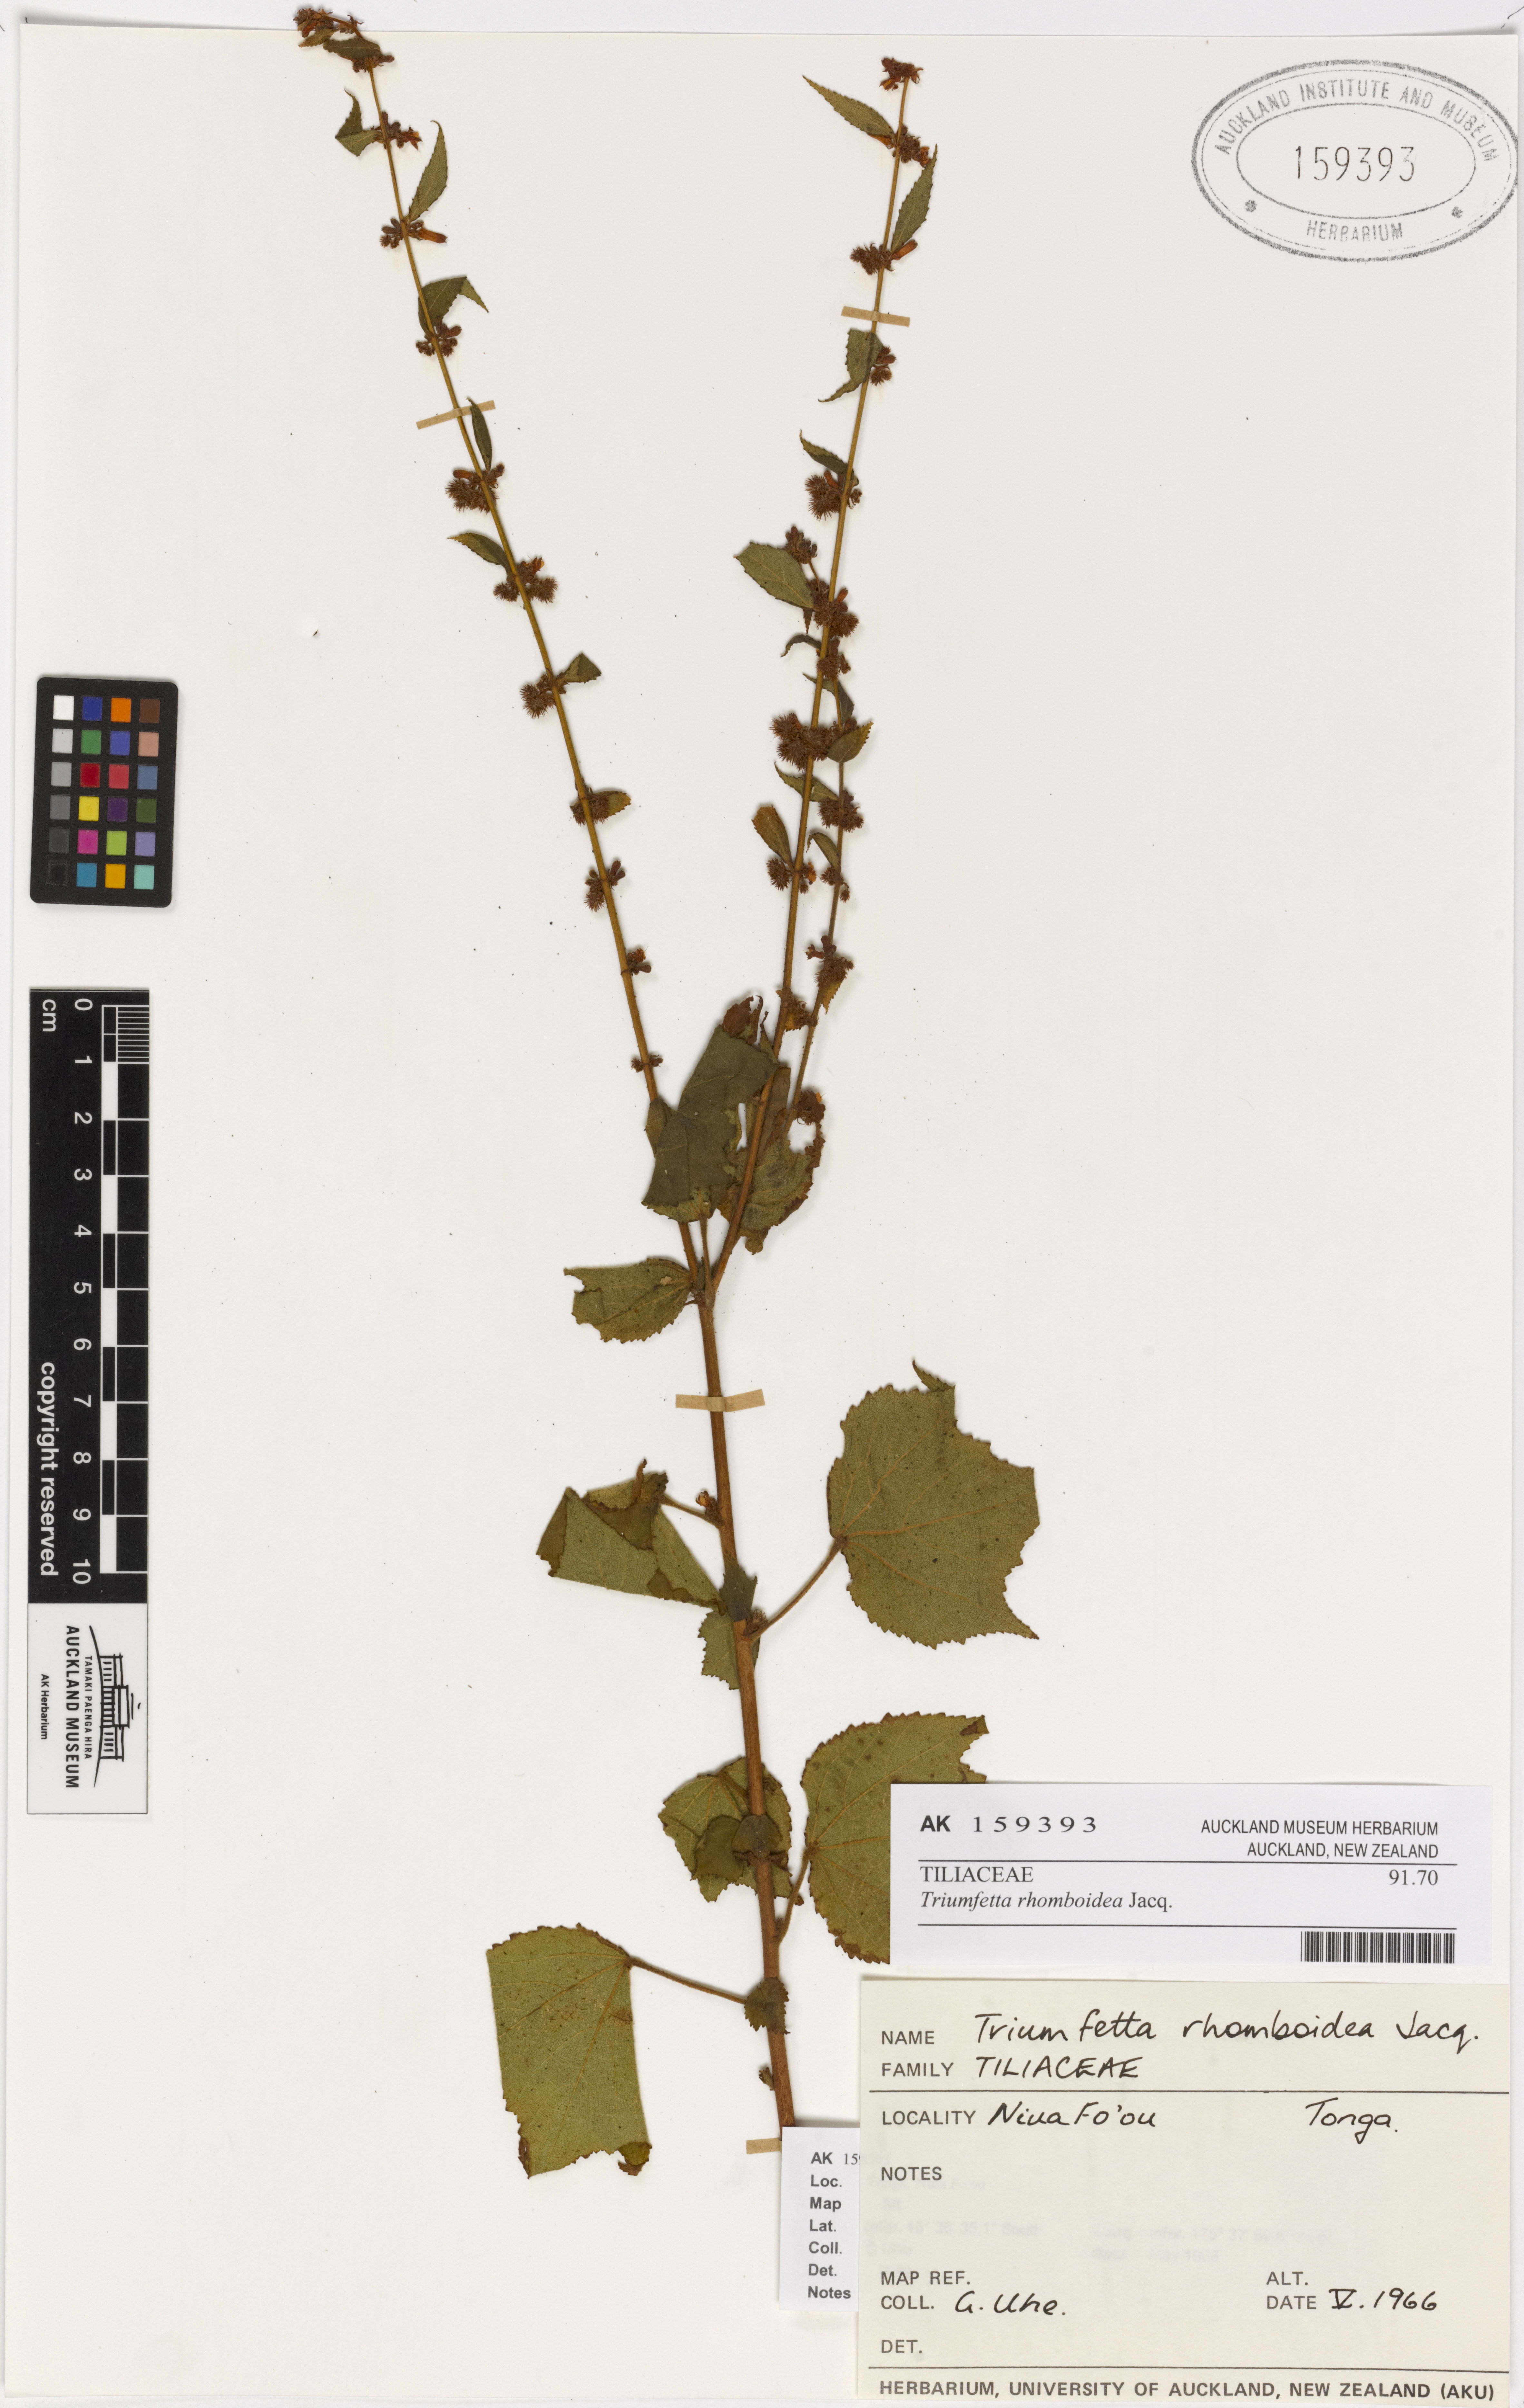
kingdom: Plantae
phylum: Tracheophyta
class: Magnoliopsida
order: Malvales
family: Malvaceae
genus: Triumfetta
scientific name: Triumfetta rhomboidea
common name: Diamond burbark
